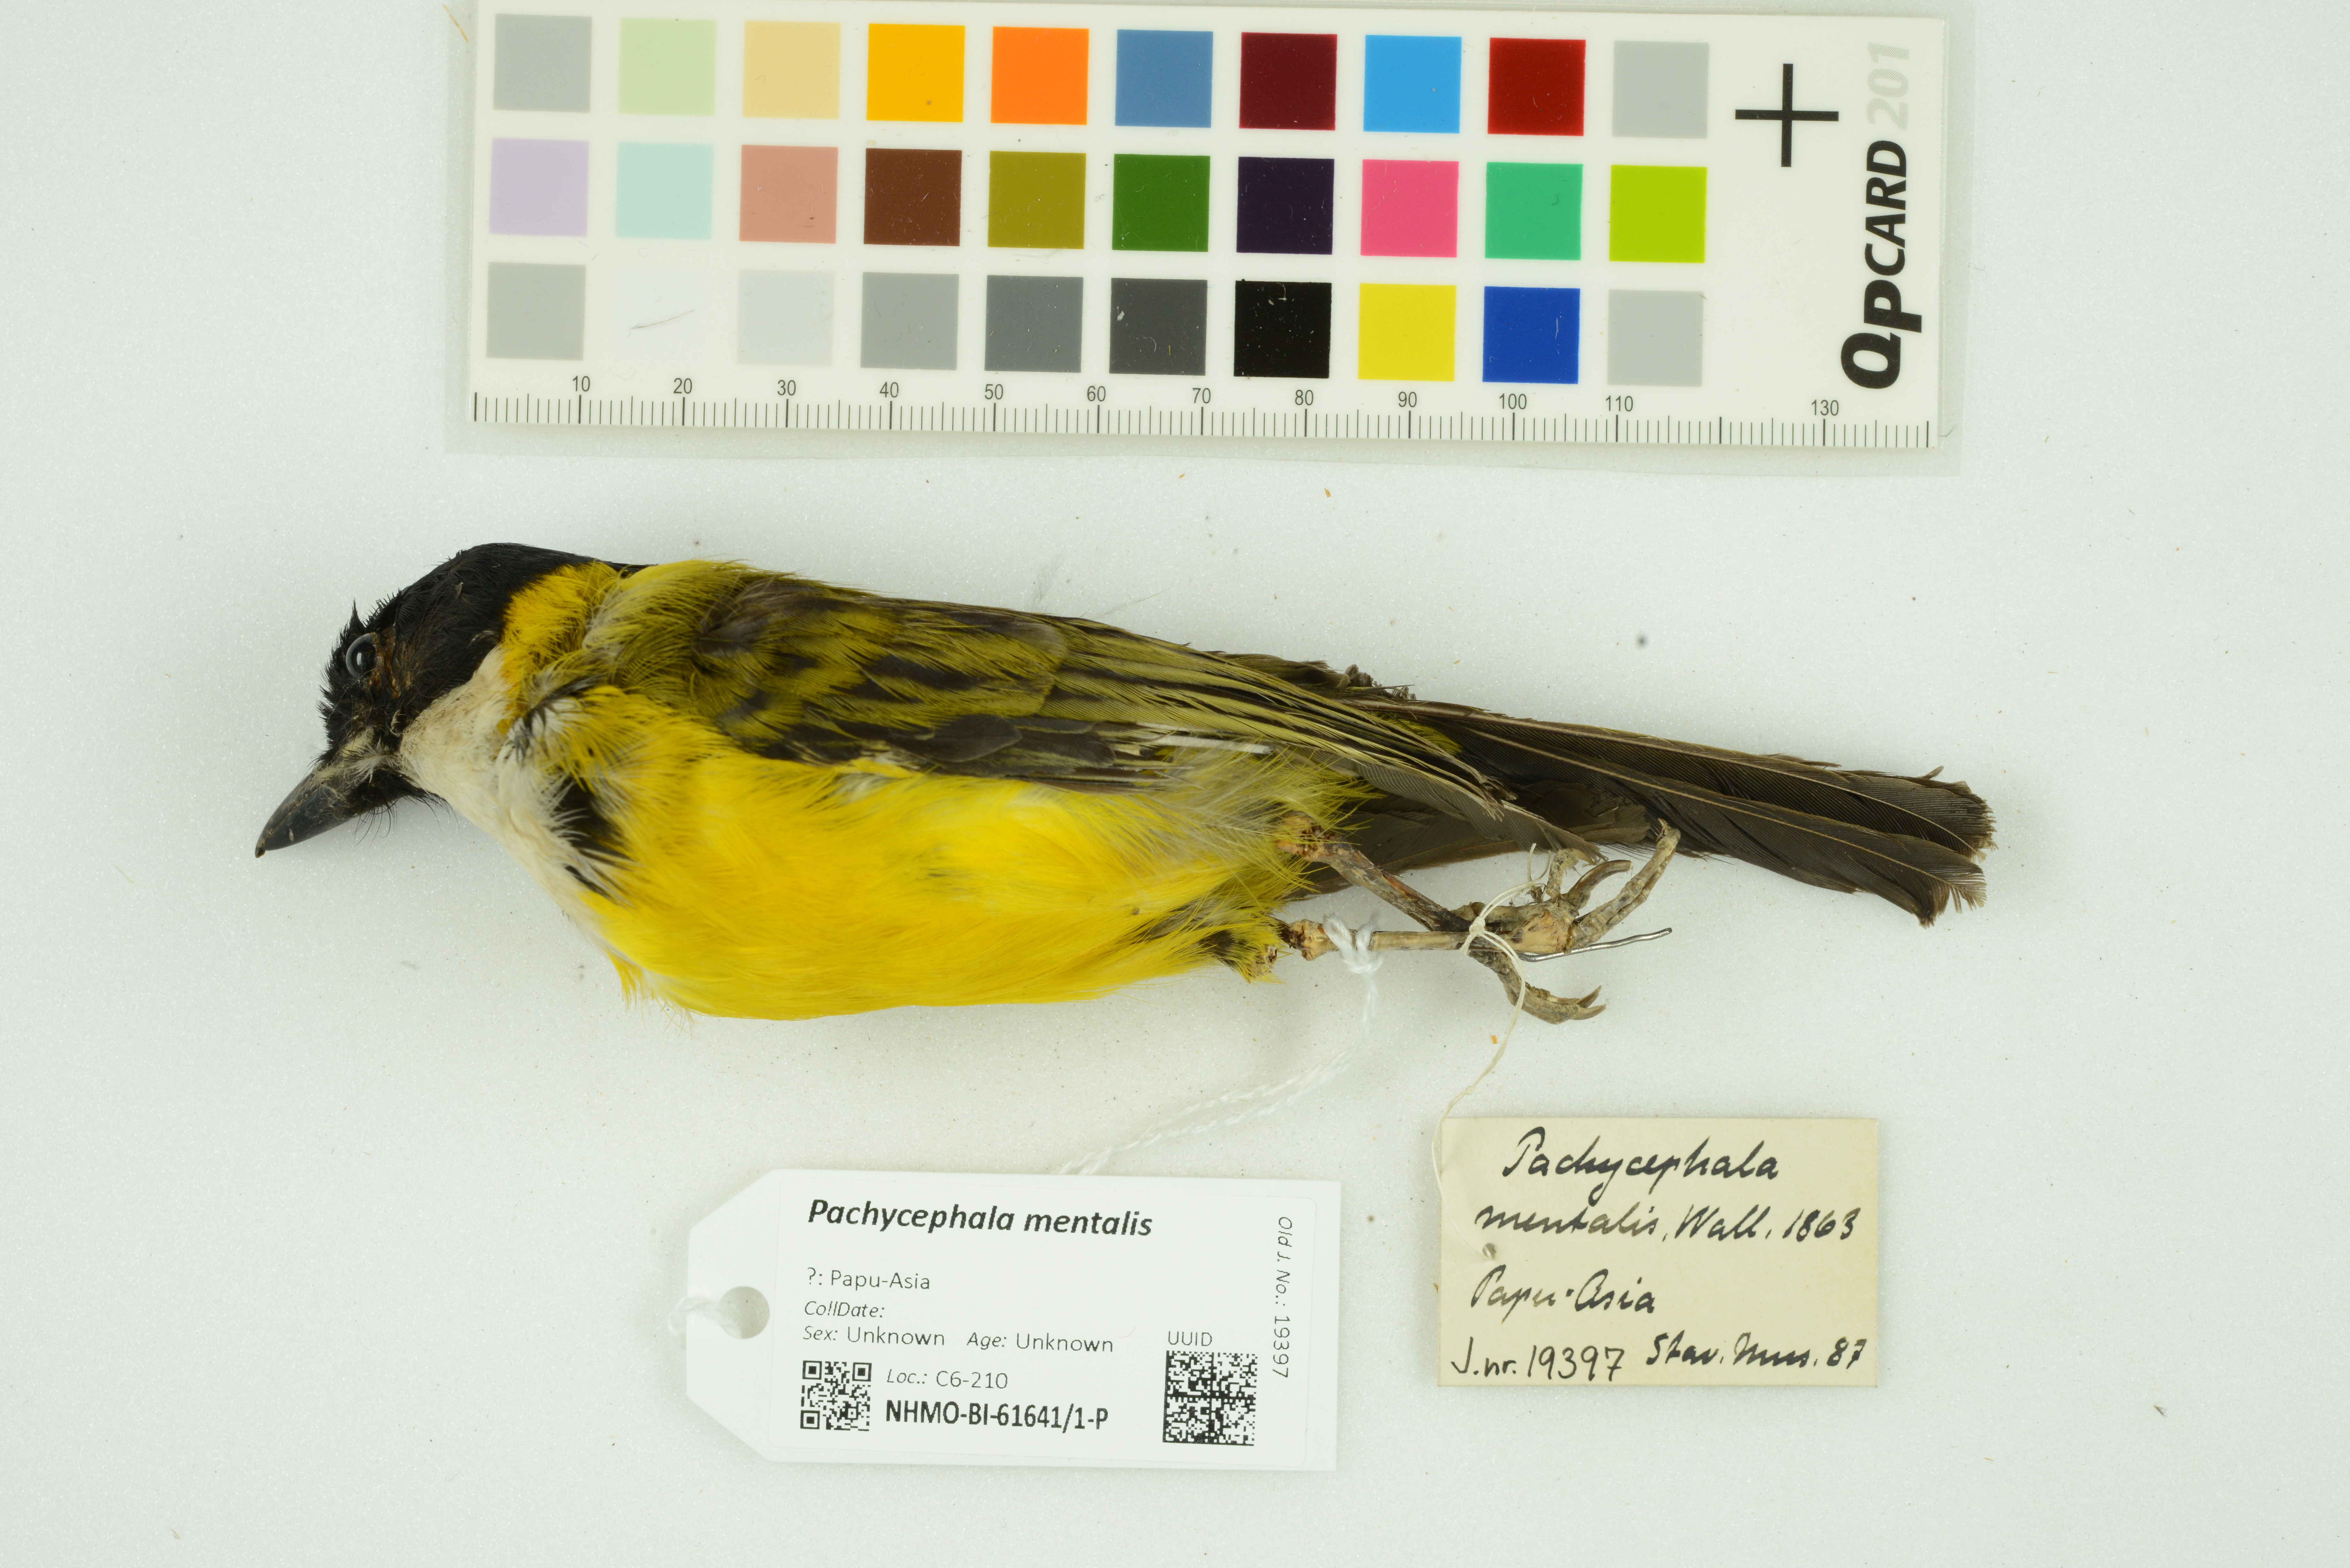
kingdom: Animalia
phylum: Chordata
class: Aves
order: Passeriformes
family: Pachycephalidae
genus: Pachycephala
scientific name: Pachycephala mentalis
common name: Black-chinned whistler
